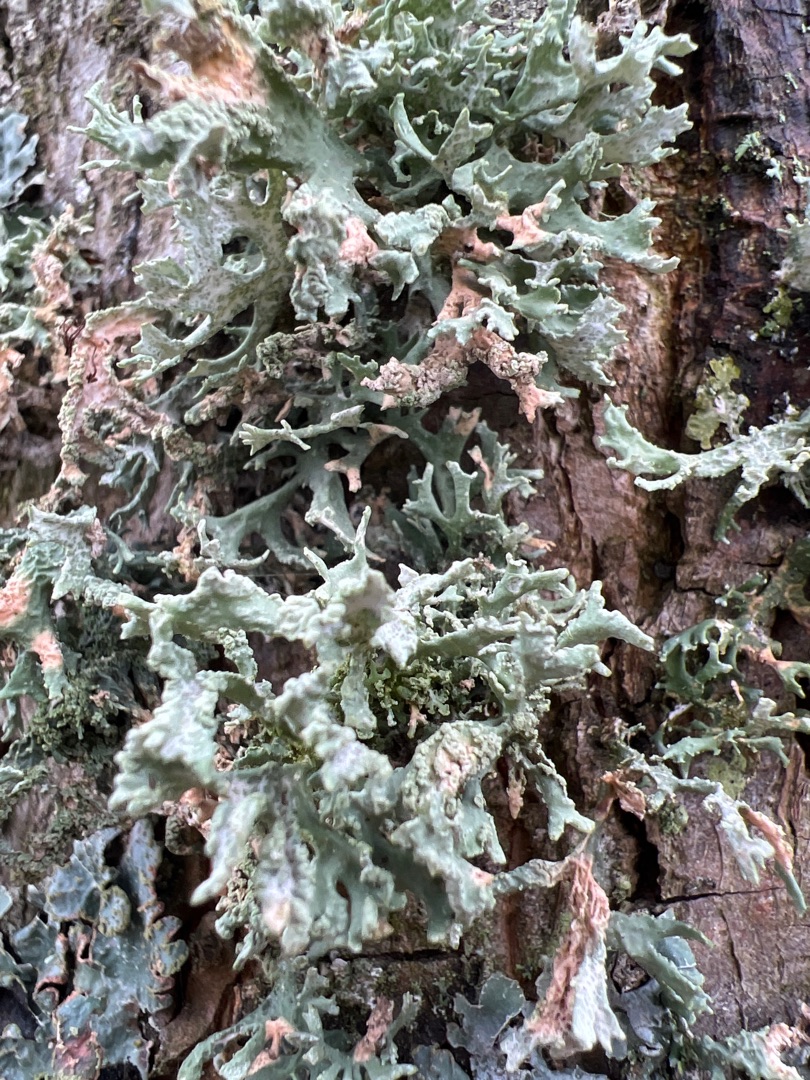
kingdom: Fungi
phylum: Ascomycota
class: Lecanoromycetes
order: Lecanorales
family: Parmeliaceae
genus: Evernia
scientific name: Evernia prunastri
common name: Almindelig slåenlav
